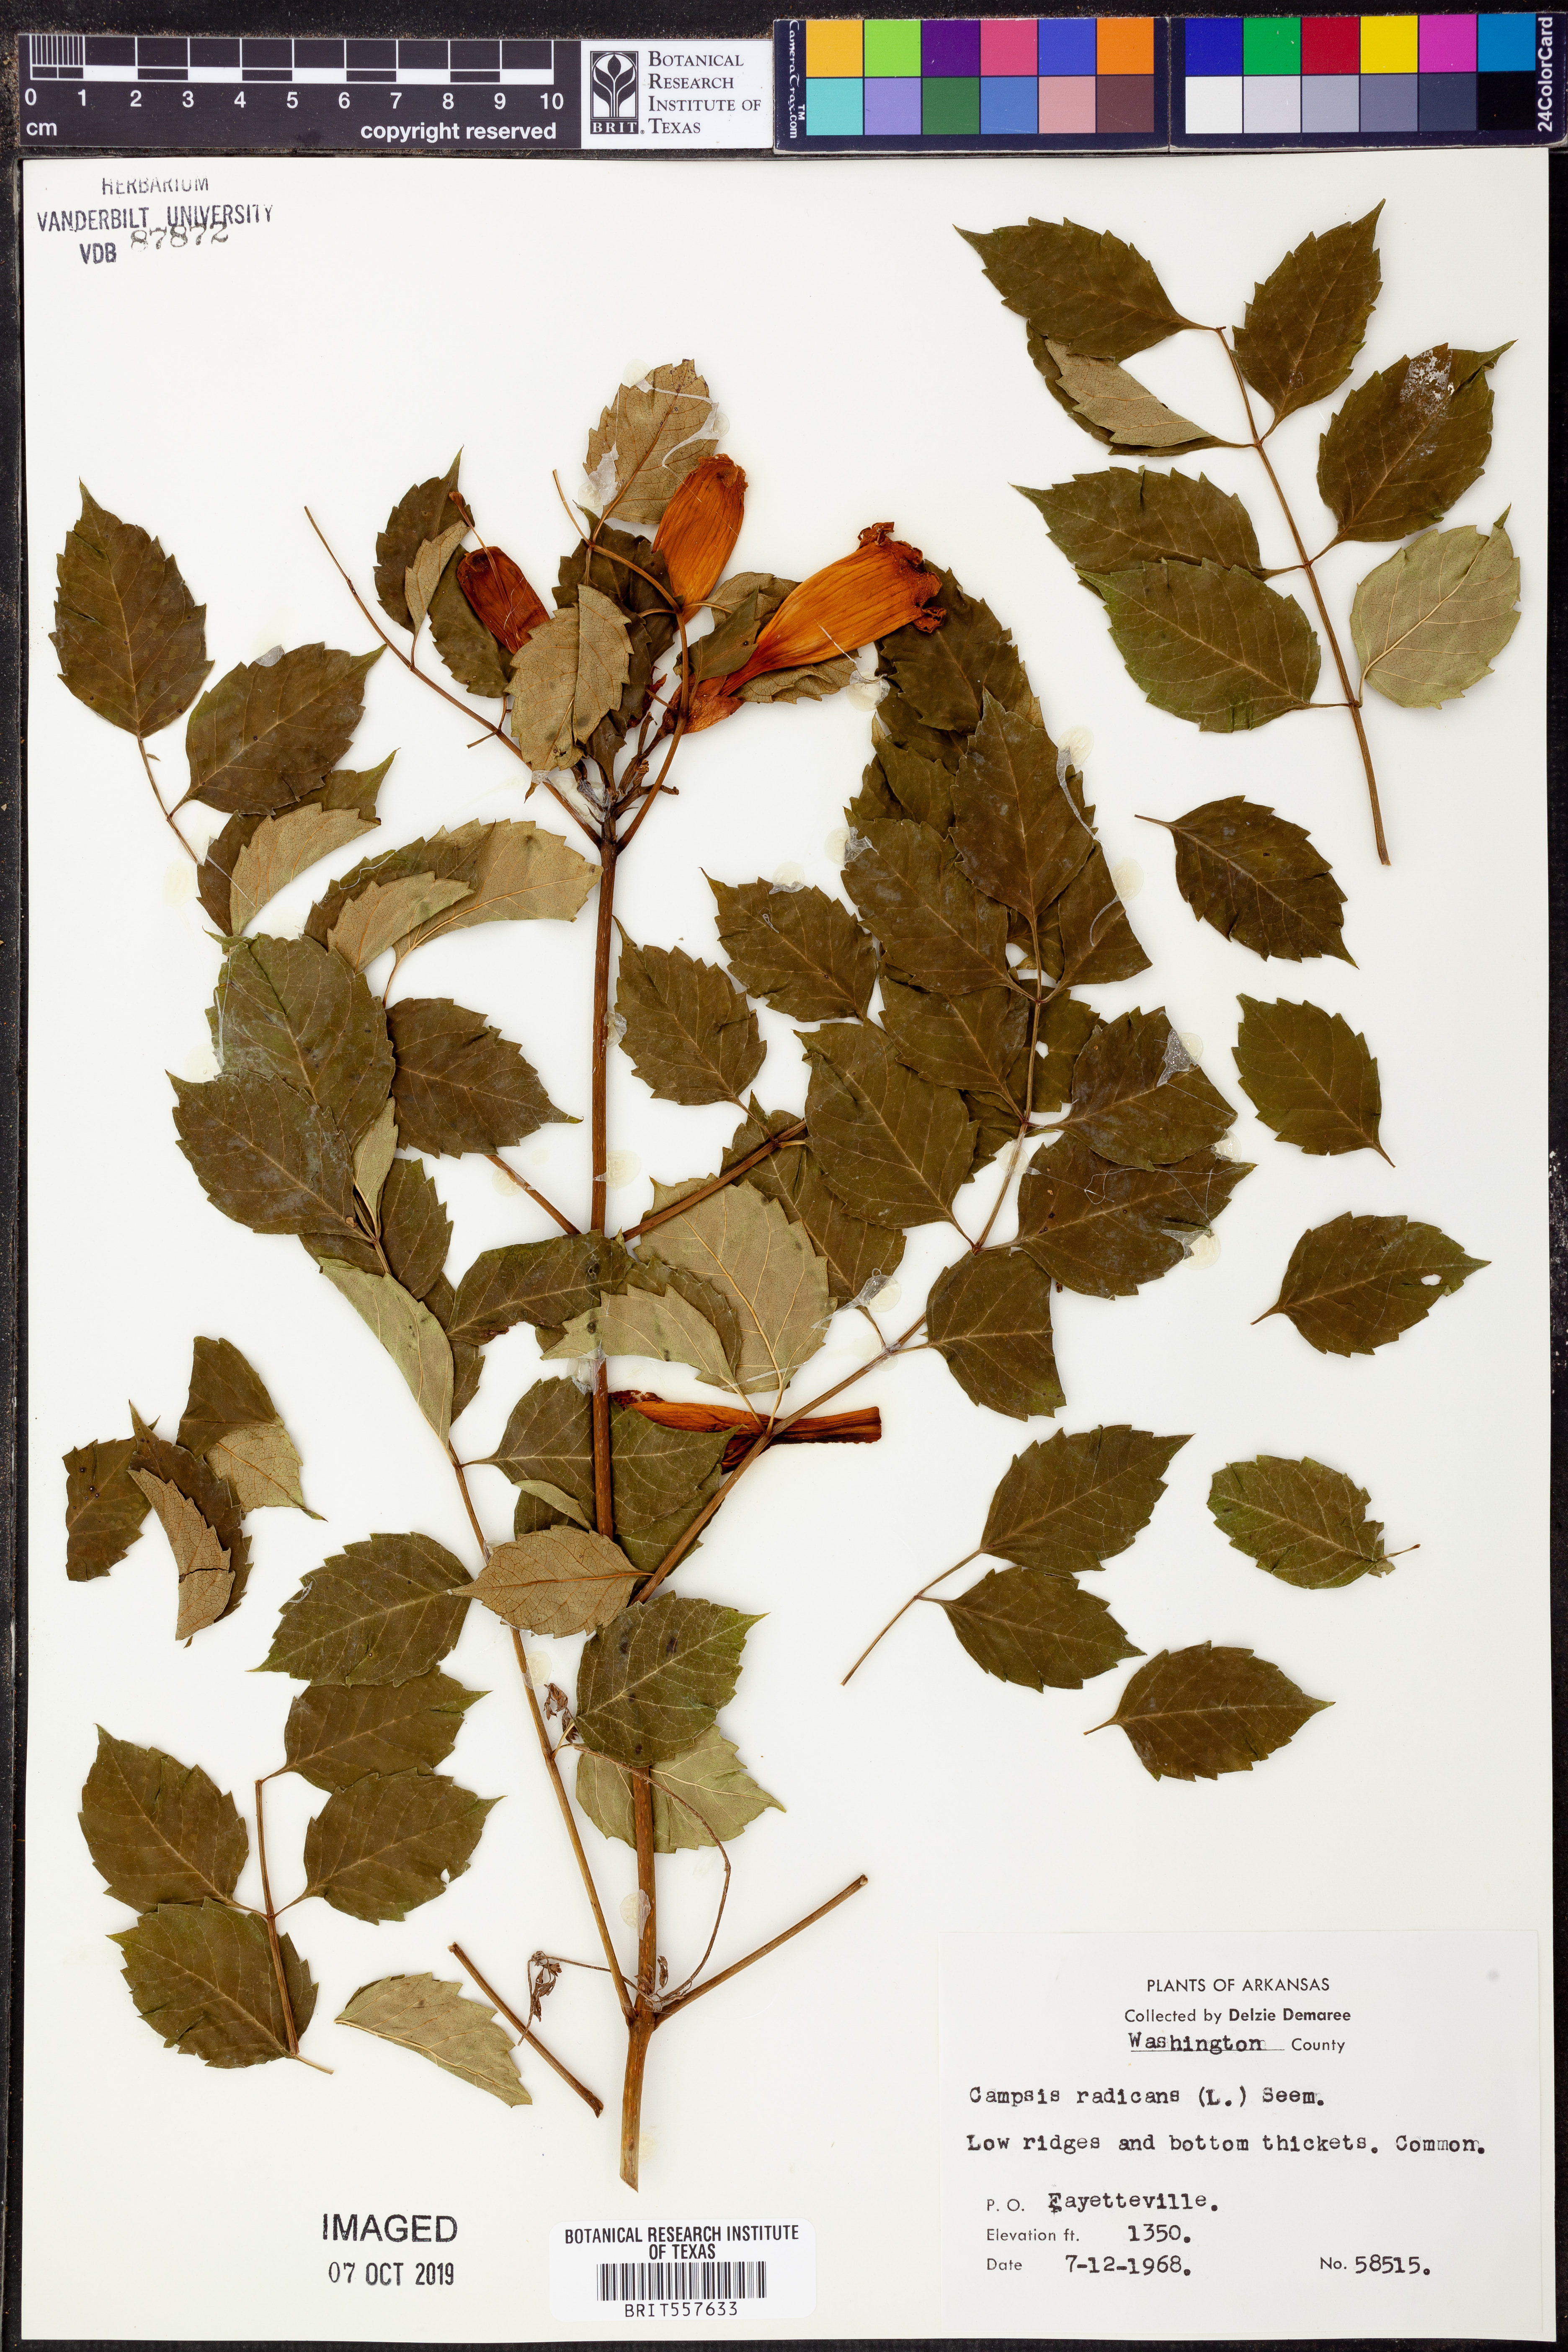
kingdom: Plantae
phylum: Tracheophyta
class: Magnoliopsida
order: Lamiales
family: Bignoniaceae
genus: Campsis
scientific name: Campsis radicans
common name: Trumpet-creeper
